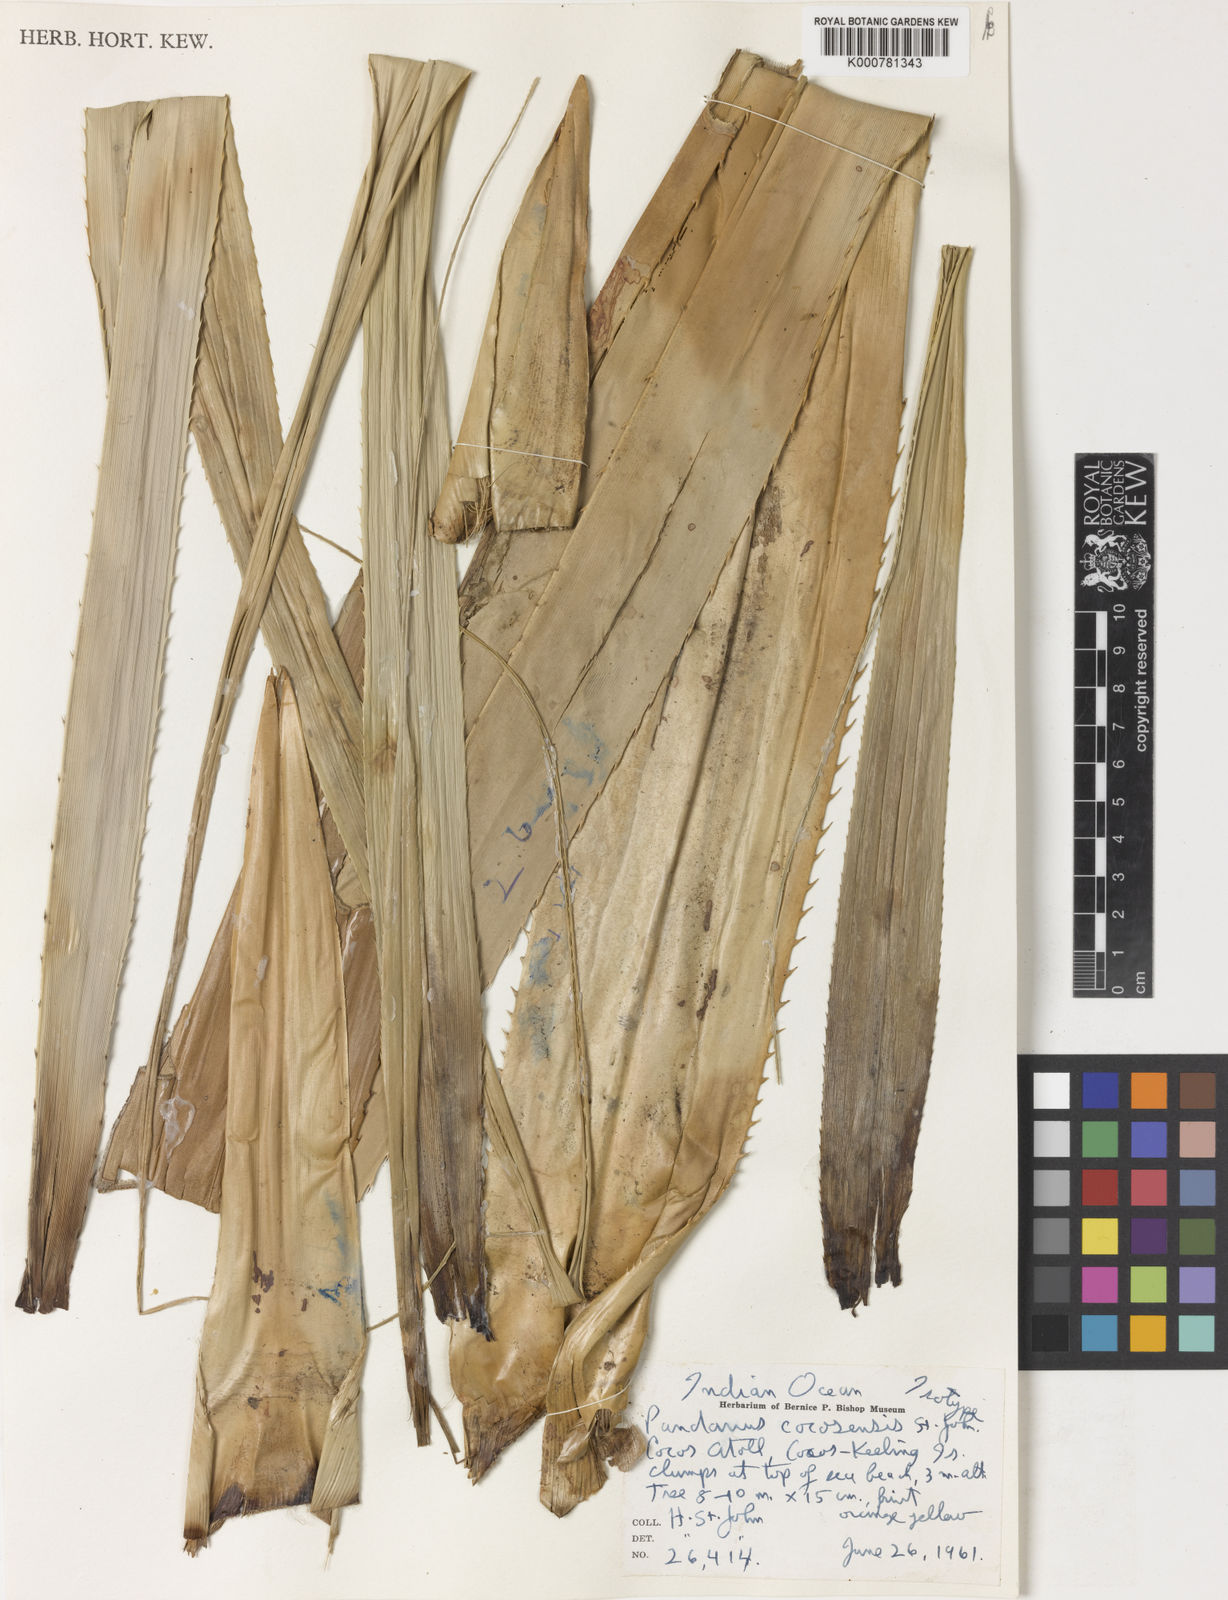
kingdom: Plantae
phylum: Tracheophyta
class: Liliopsida
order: Pandanales
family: Pandanaceae
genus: Pandanus
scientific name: Pandanus
